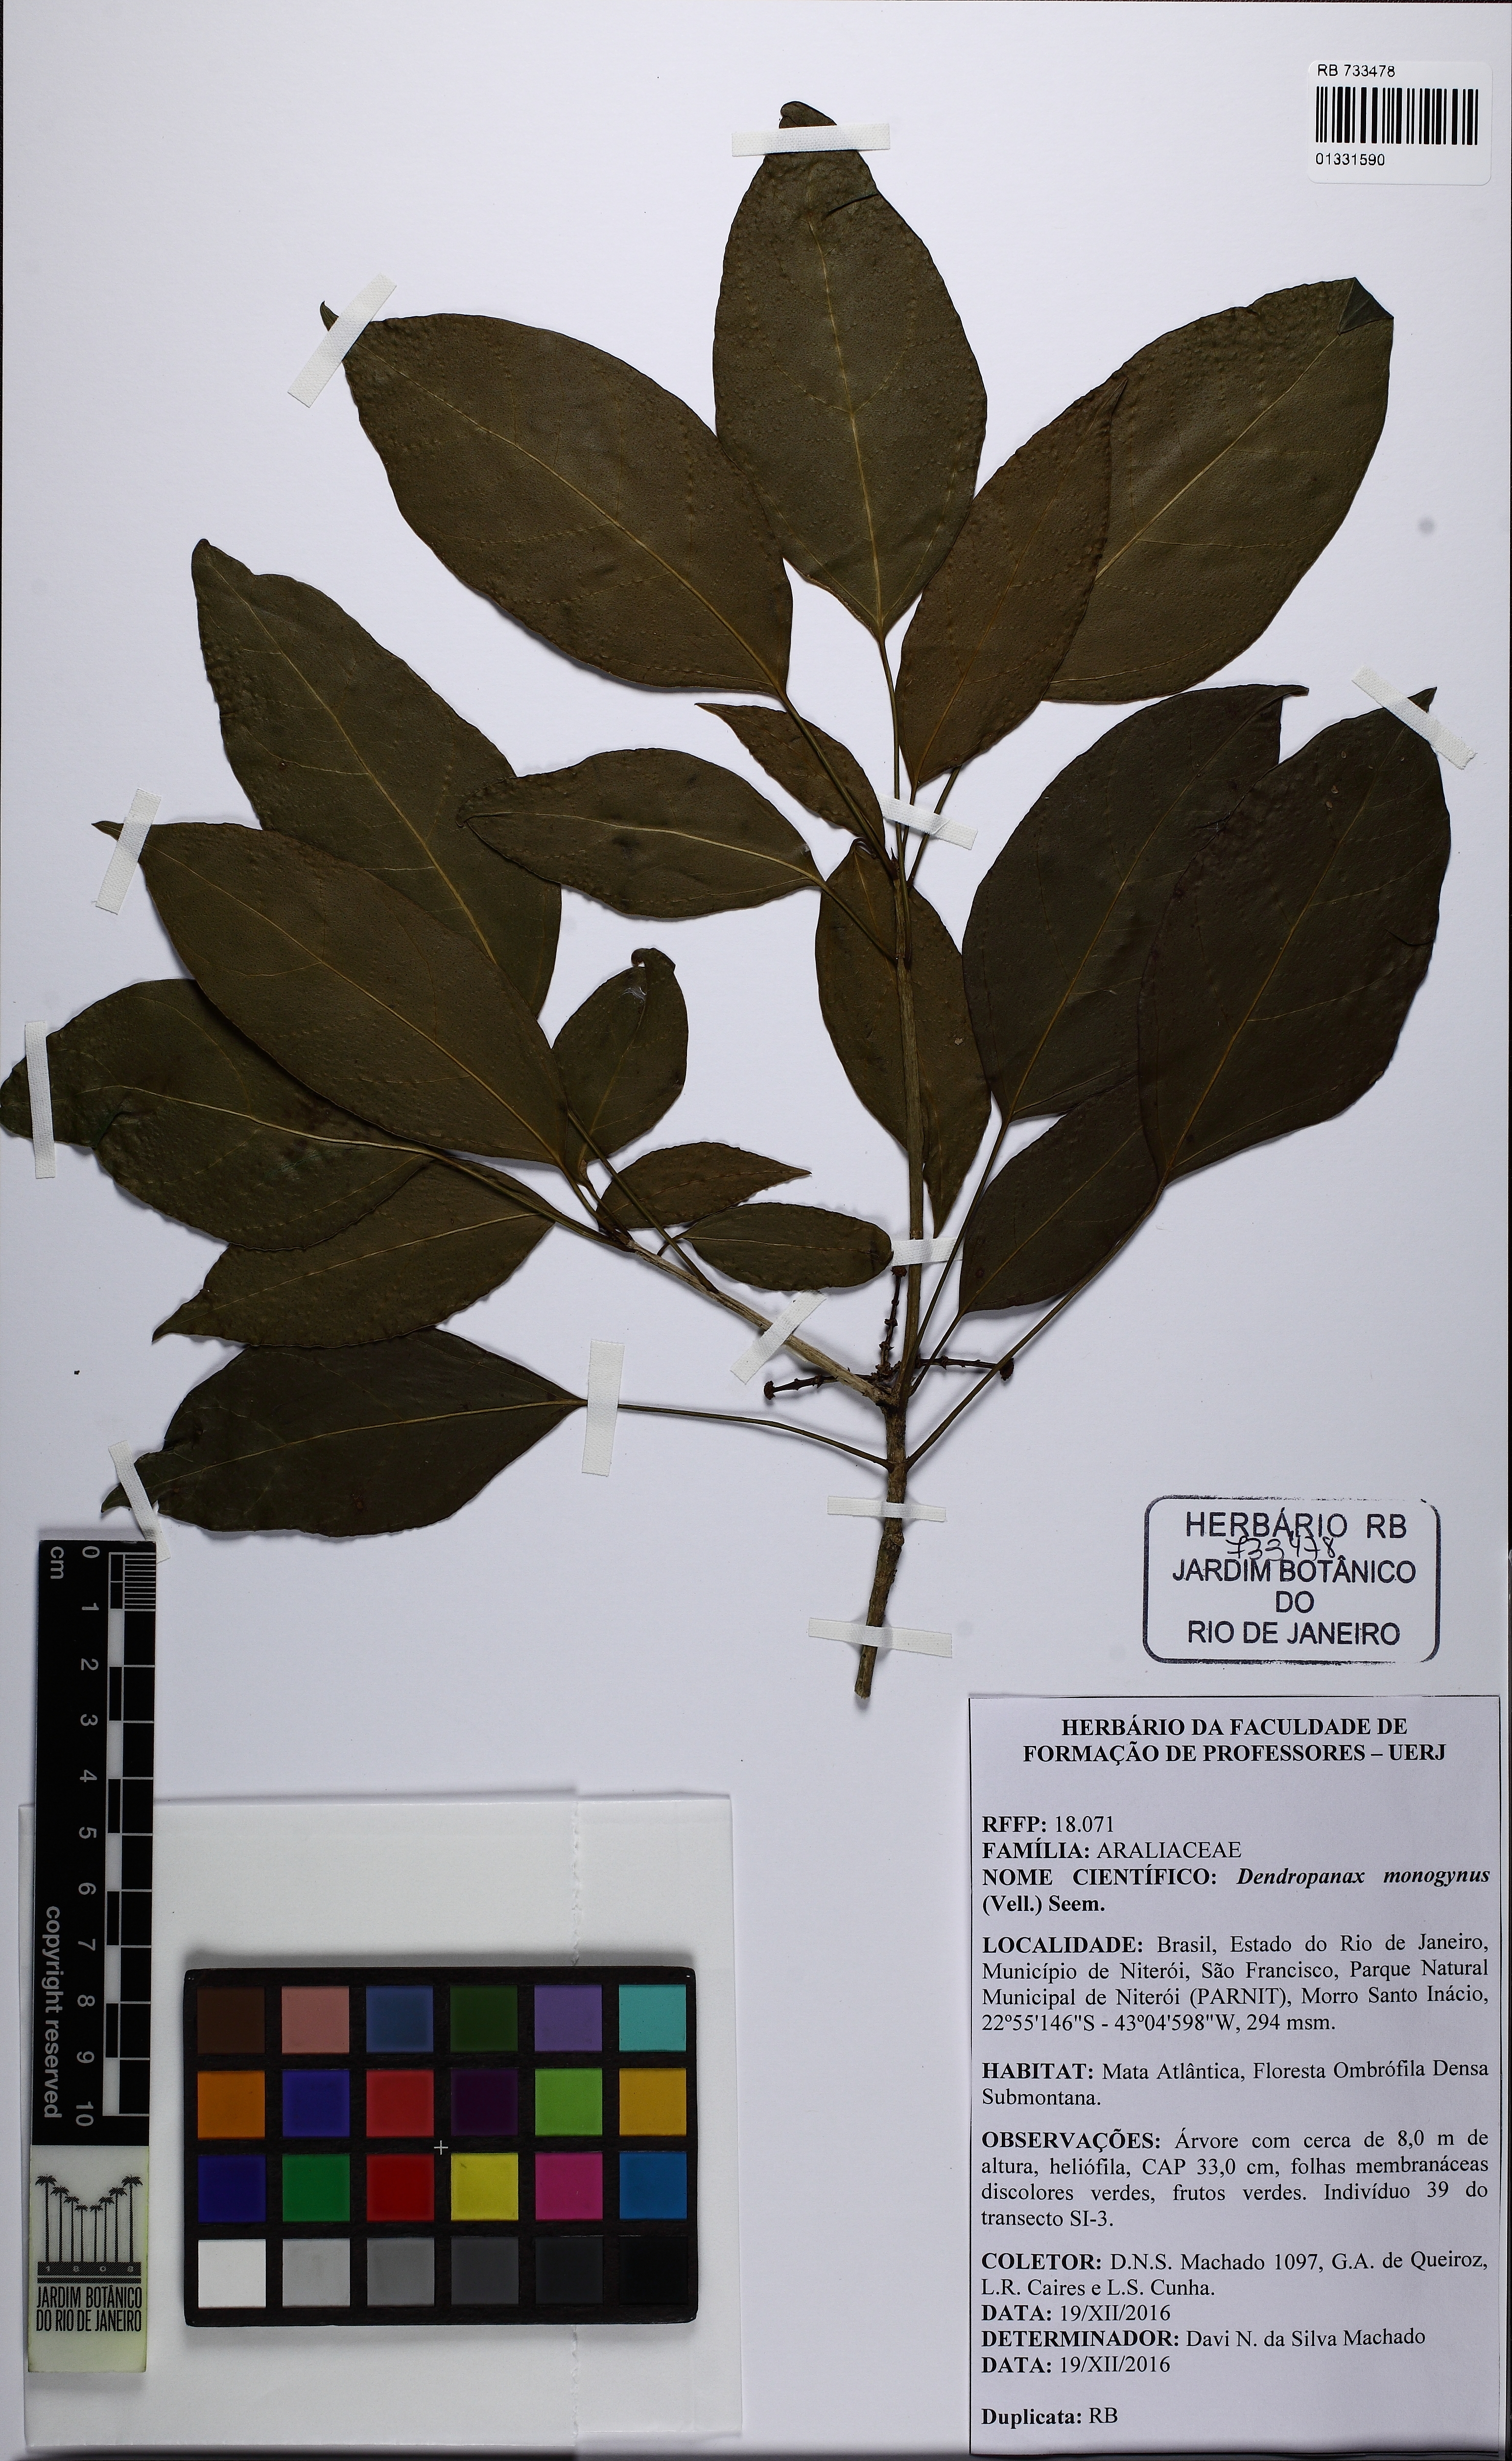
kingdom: Plantae
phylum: Tracheophyta
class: Magnoliopsida
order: Apiales
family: Araliaceae
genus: Dendropanax
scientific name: Dendropanax monogynus
